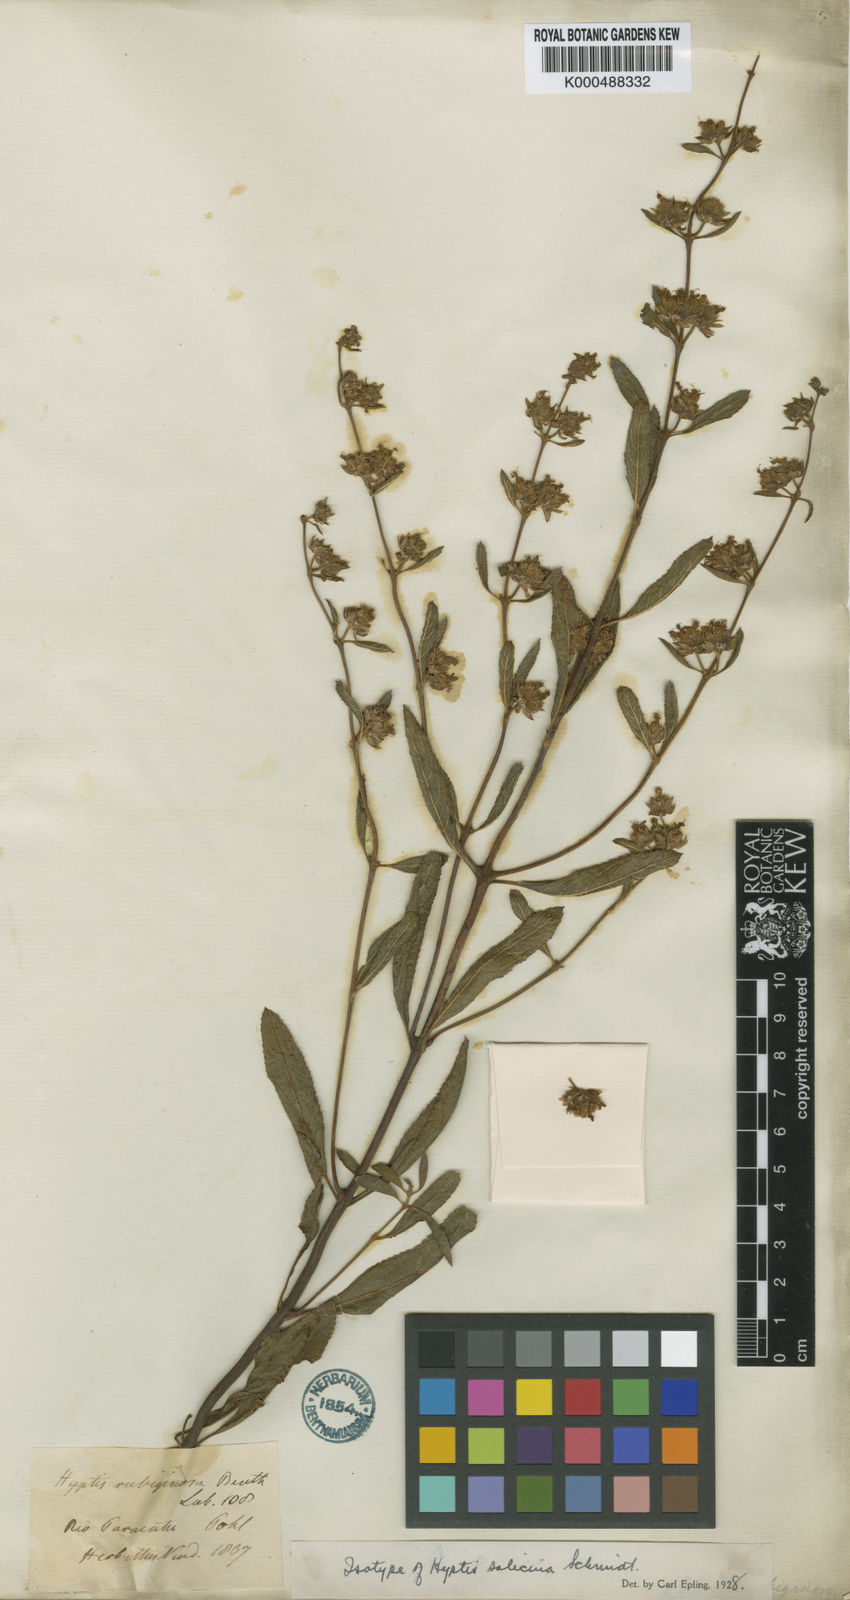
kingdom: Plantae
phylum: Tracheophyta
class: Magnoliopsida
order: Lamiales
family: Lamiaceae
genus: Hyptis
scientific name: Hyptis salicina
